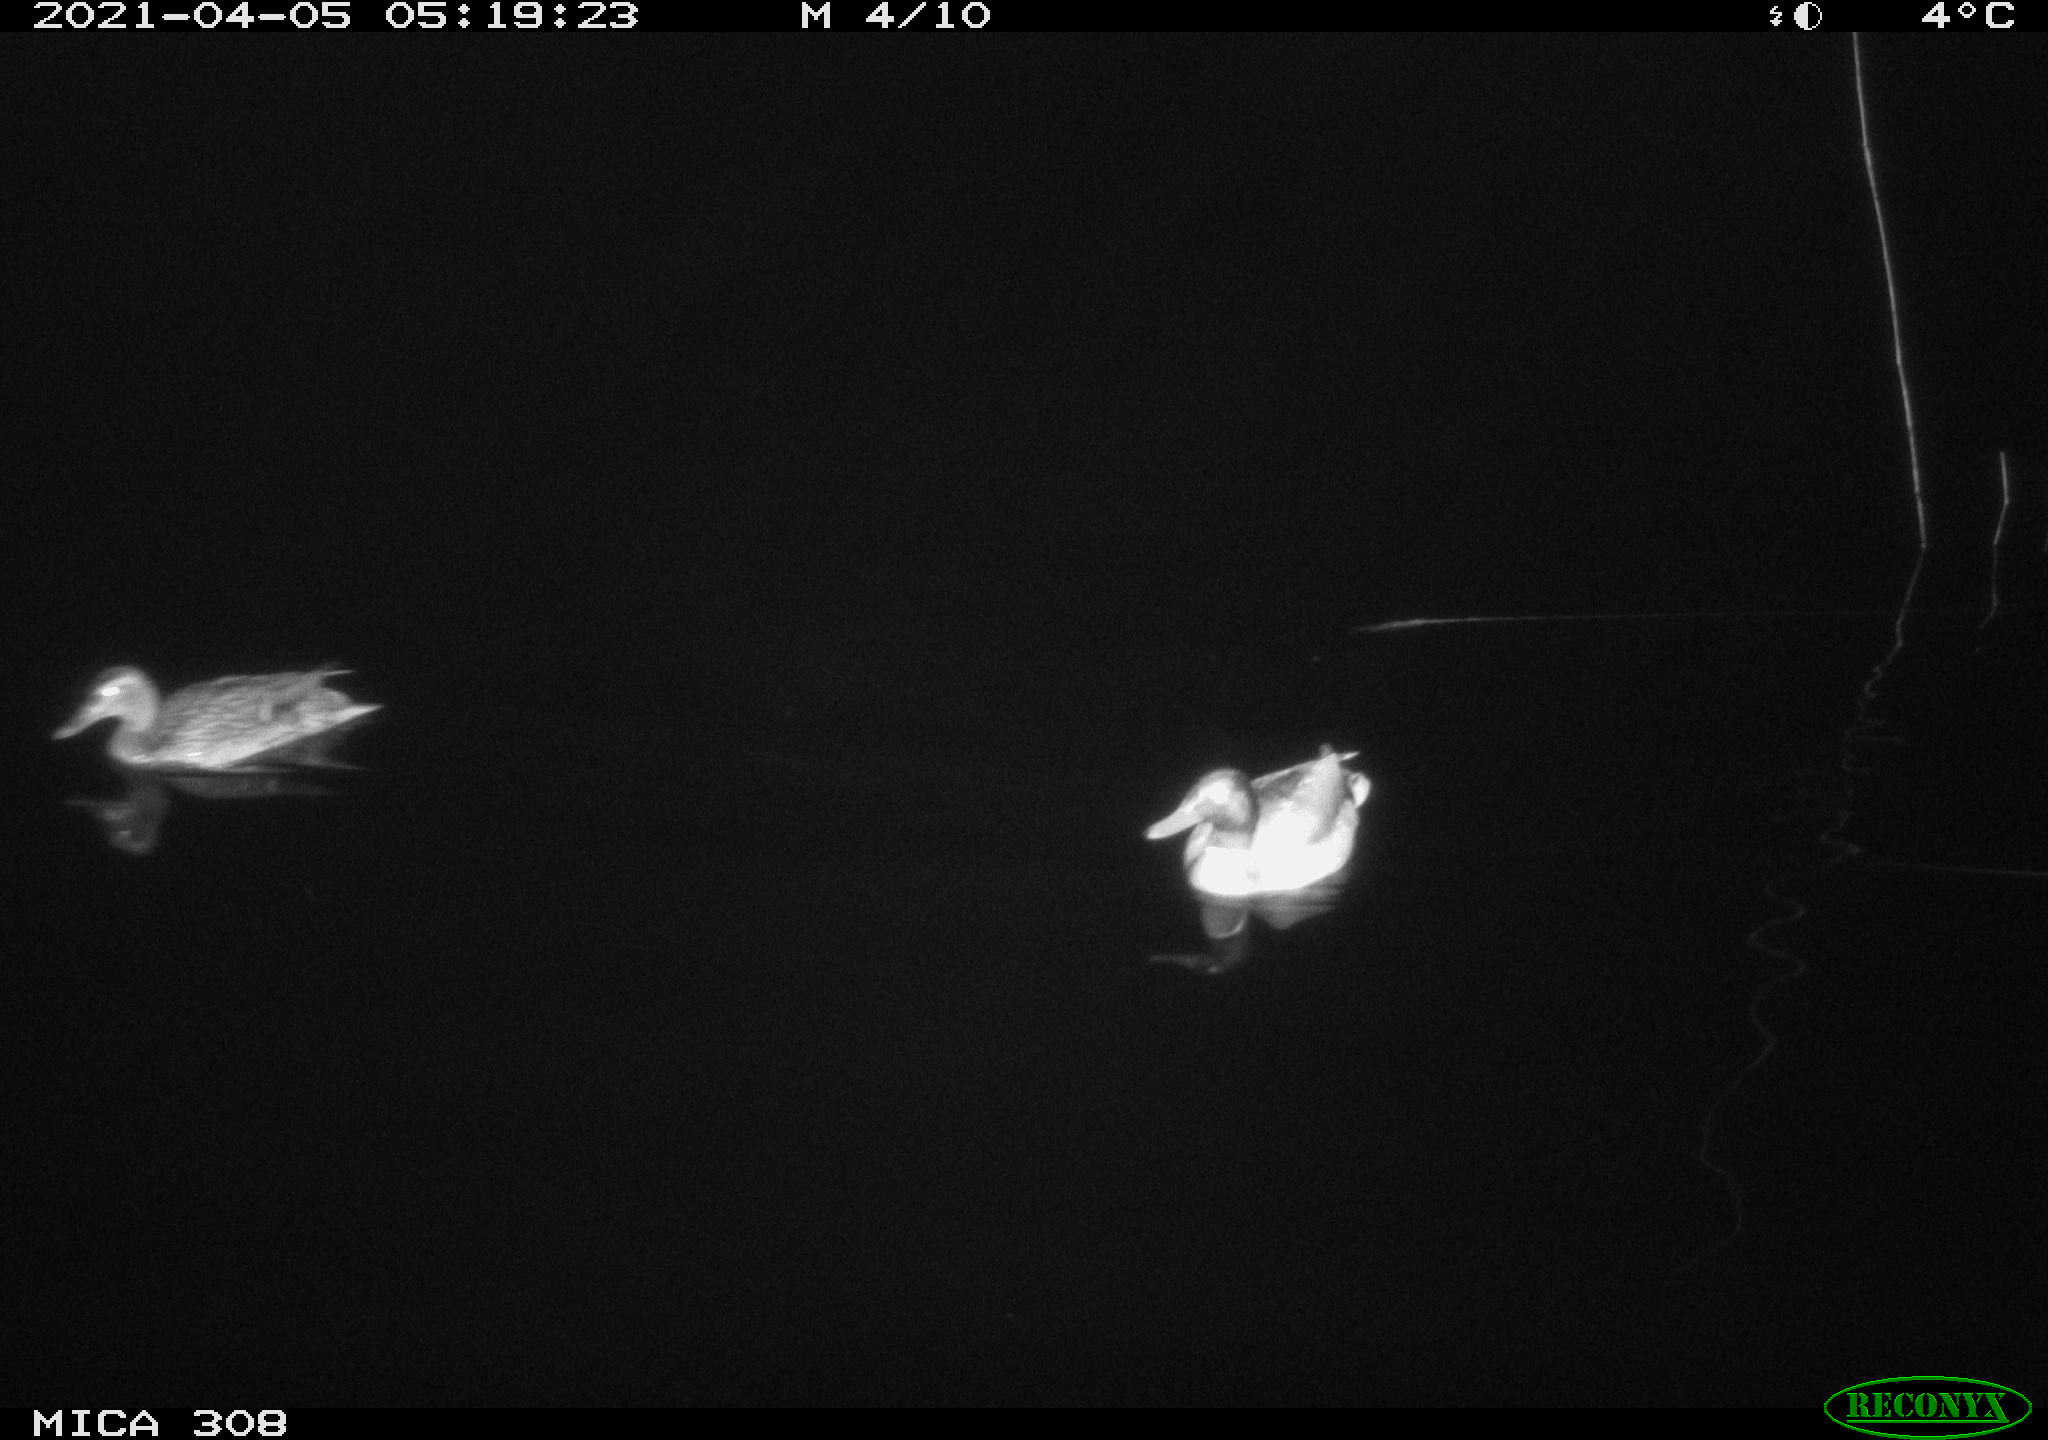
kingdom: Animalia
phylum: Chordata
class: Aves
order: Anseriformes
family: Anatidae
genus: Anas
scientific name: Anas platyrhynchos
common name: Mallard
